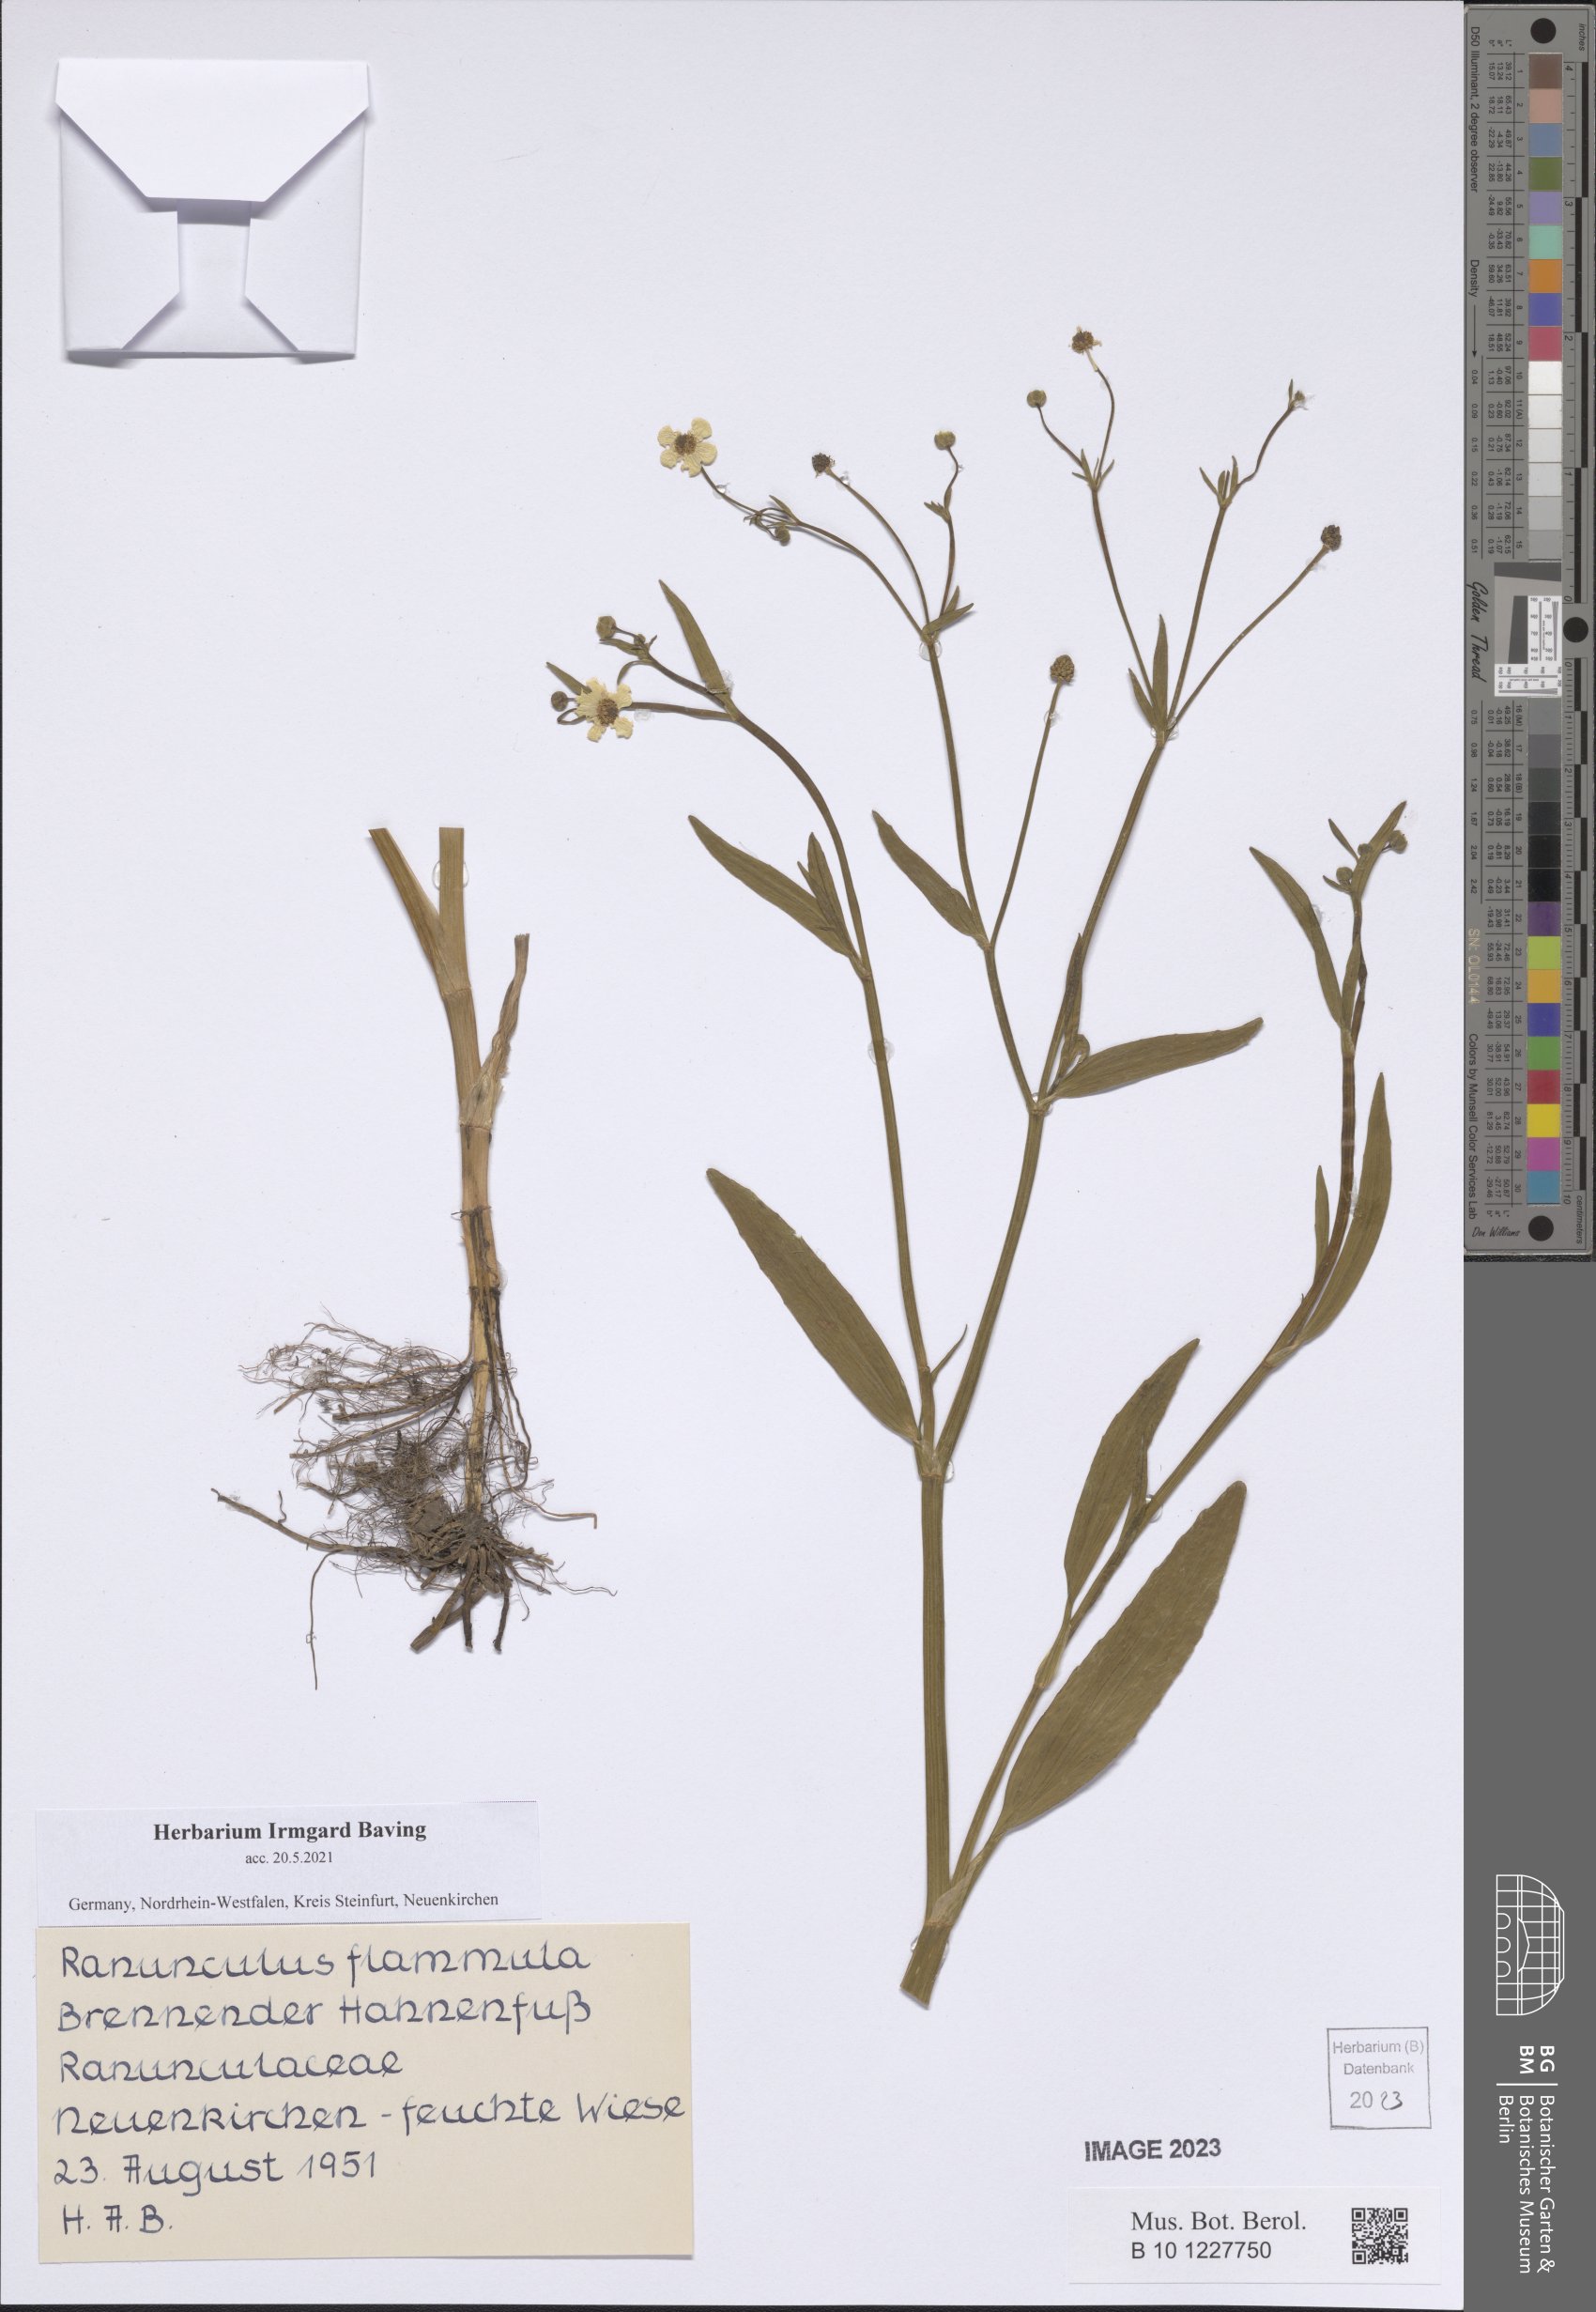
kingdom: Plantae
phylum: Tracheophyta
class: Magnoliopsida
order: Ranunculales
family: Ranunculaceae
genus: Ranunculus
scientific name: Ranunculus flammula
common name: Lesser spearwort
